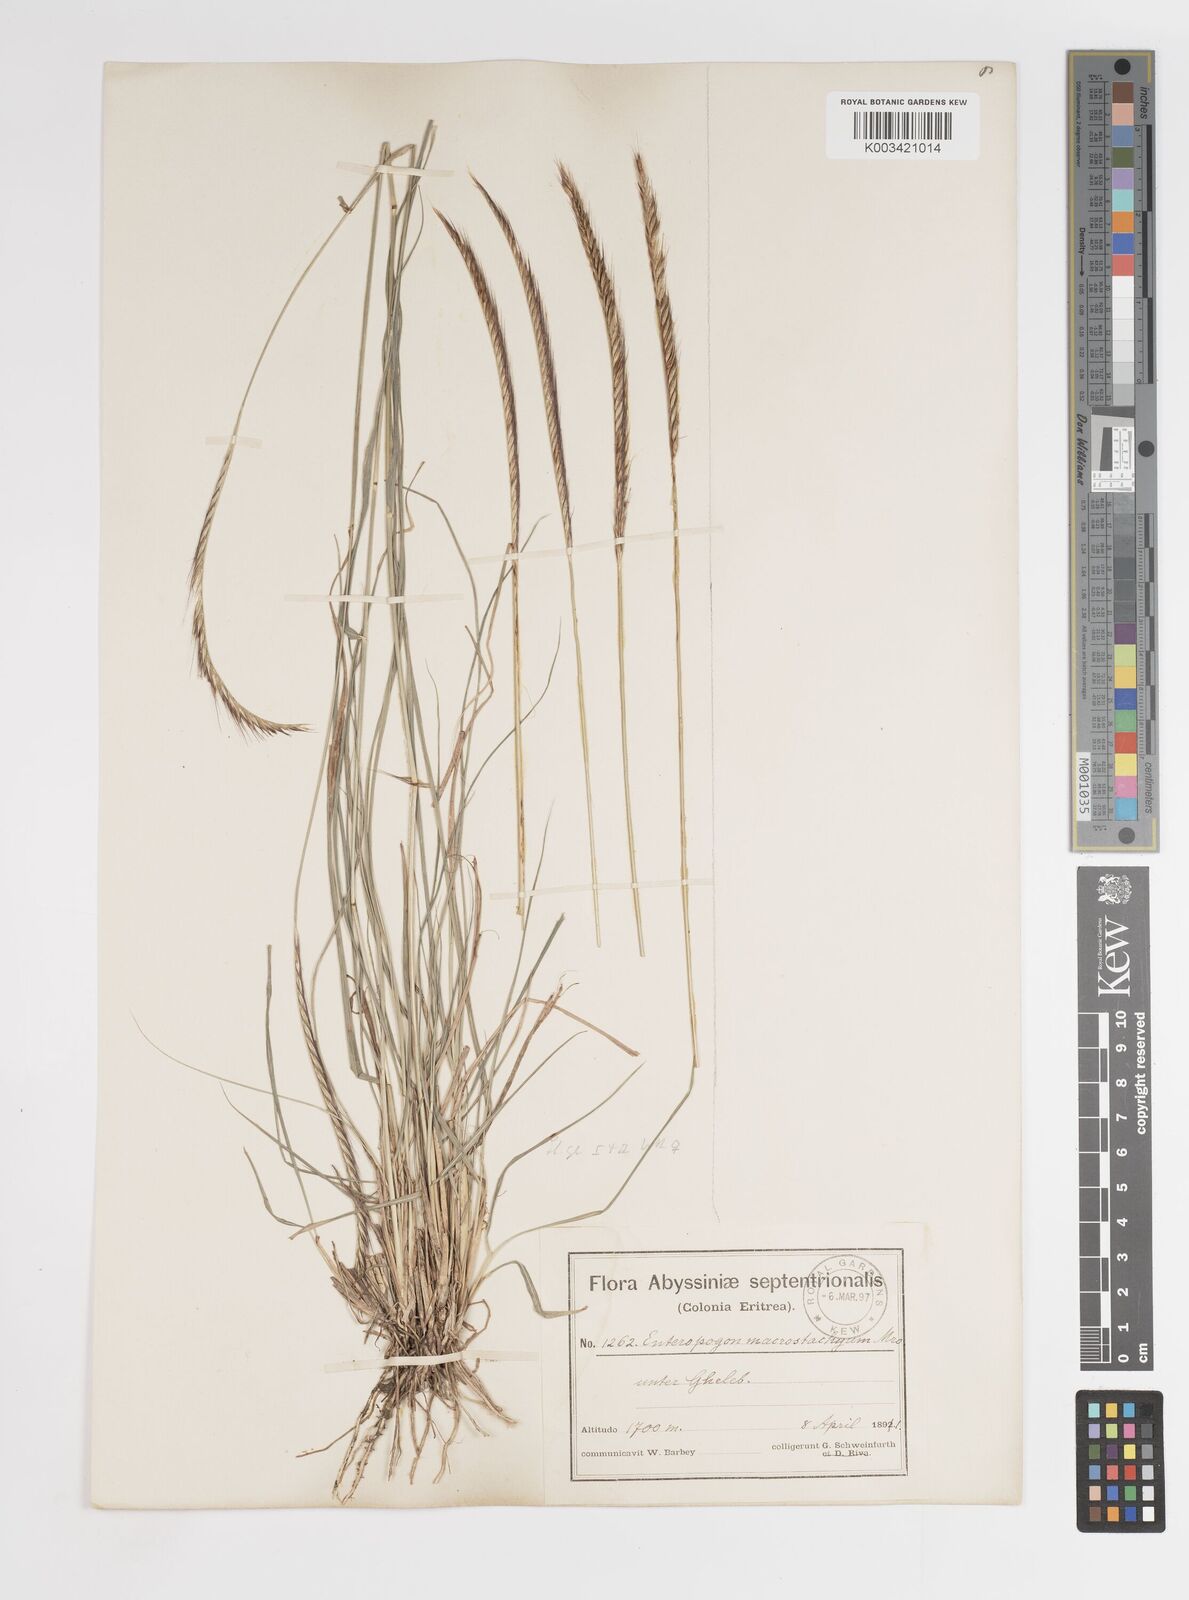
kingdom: Plantae
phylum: Tracheophyta
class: Liliopsida
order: Poales
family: Poaceae
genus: Enteropogon
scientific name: Enteropogon macrostachyus
